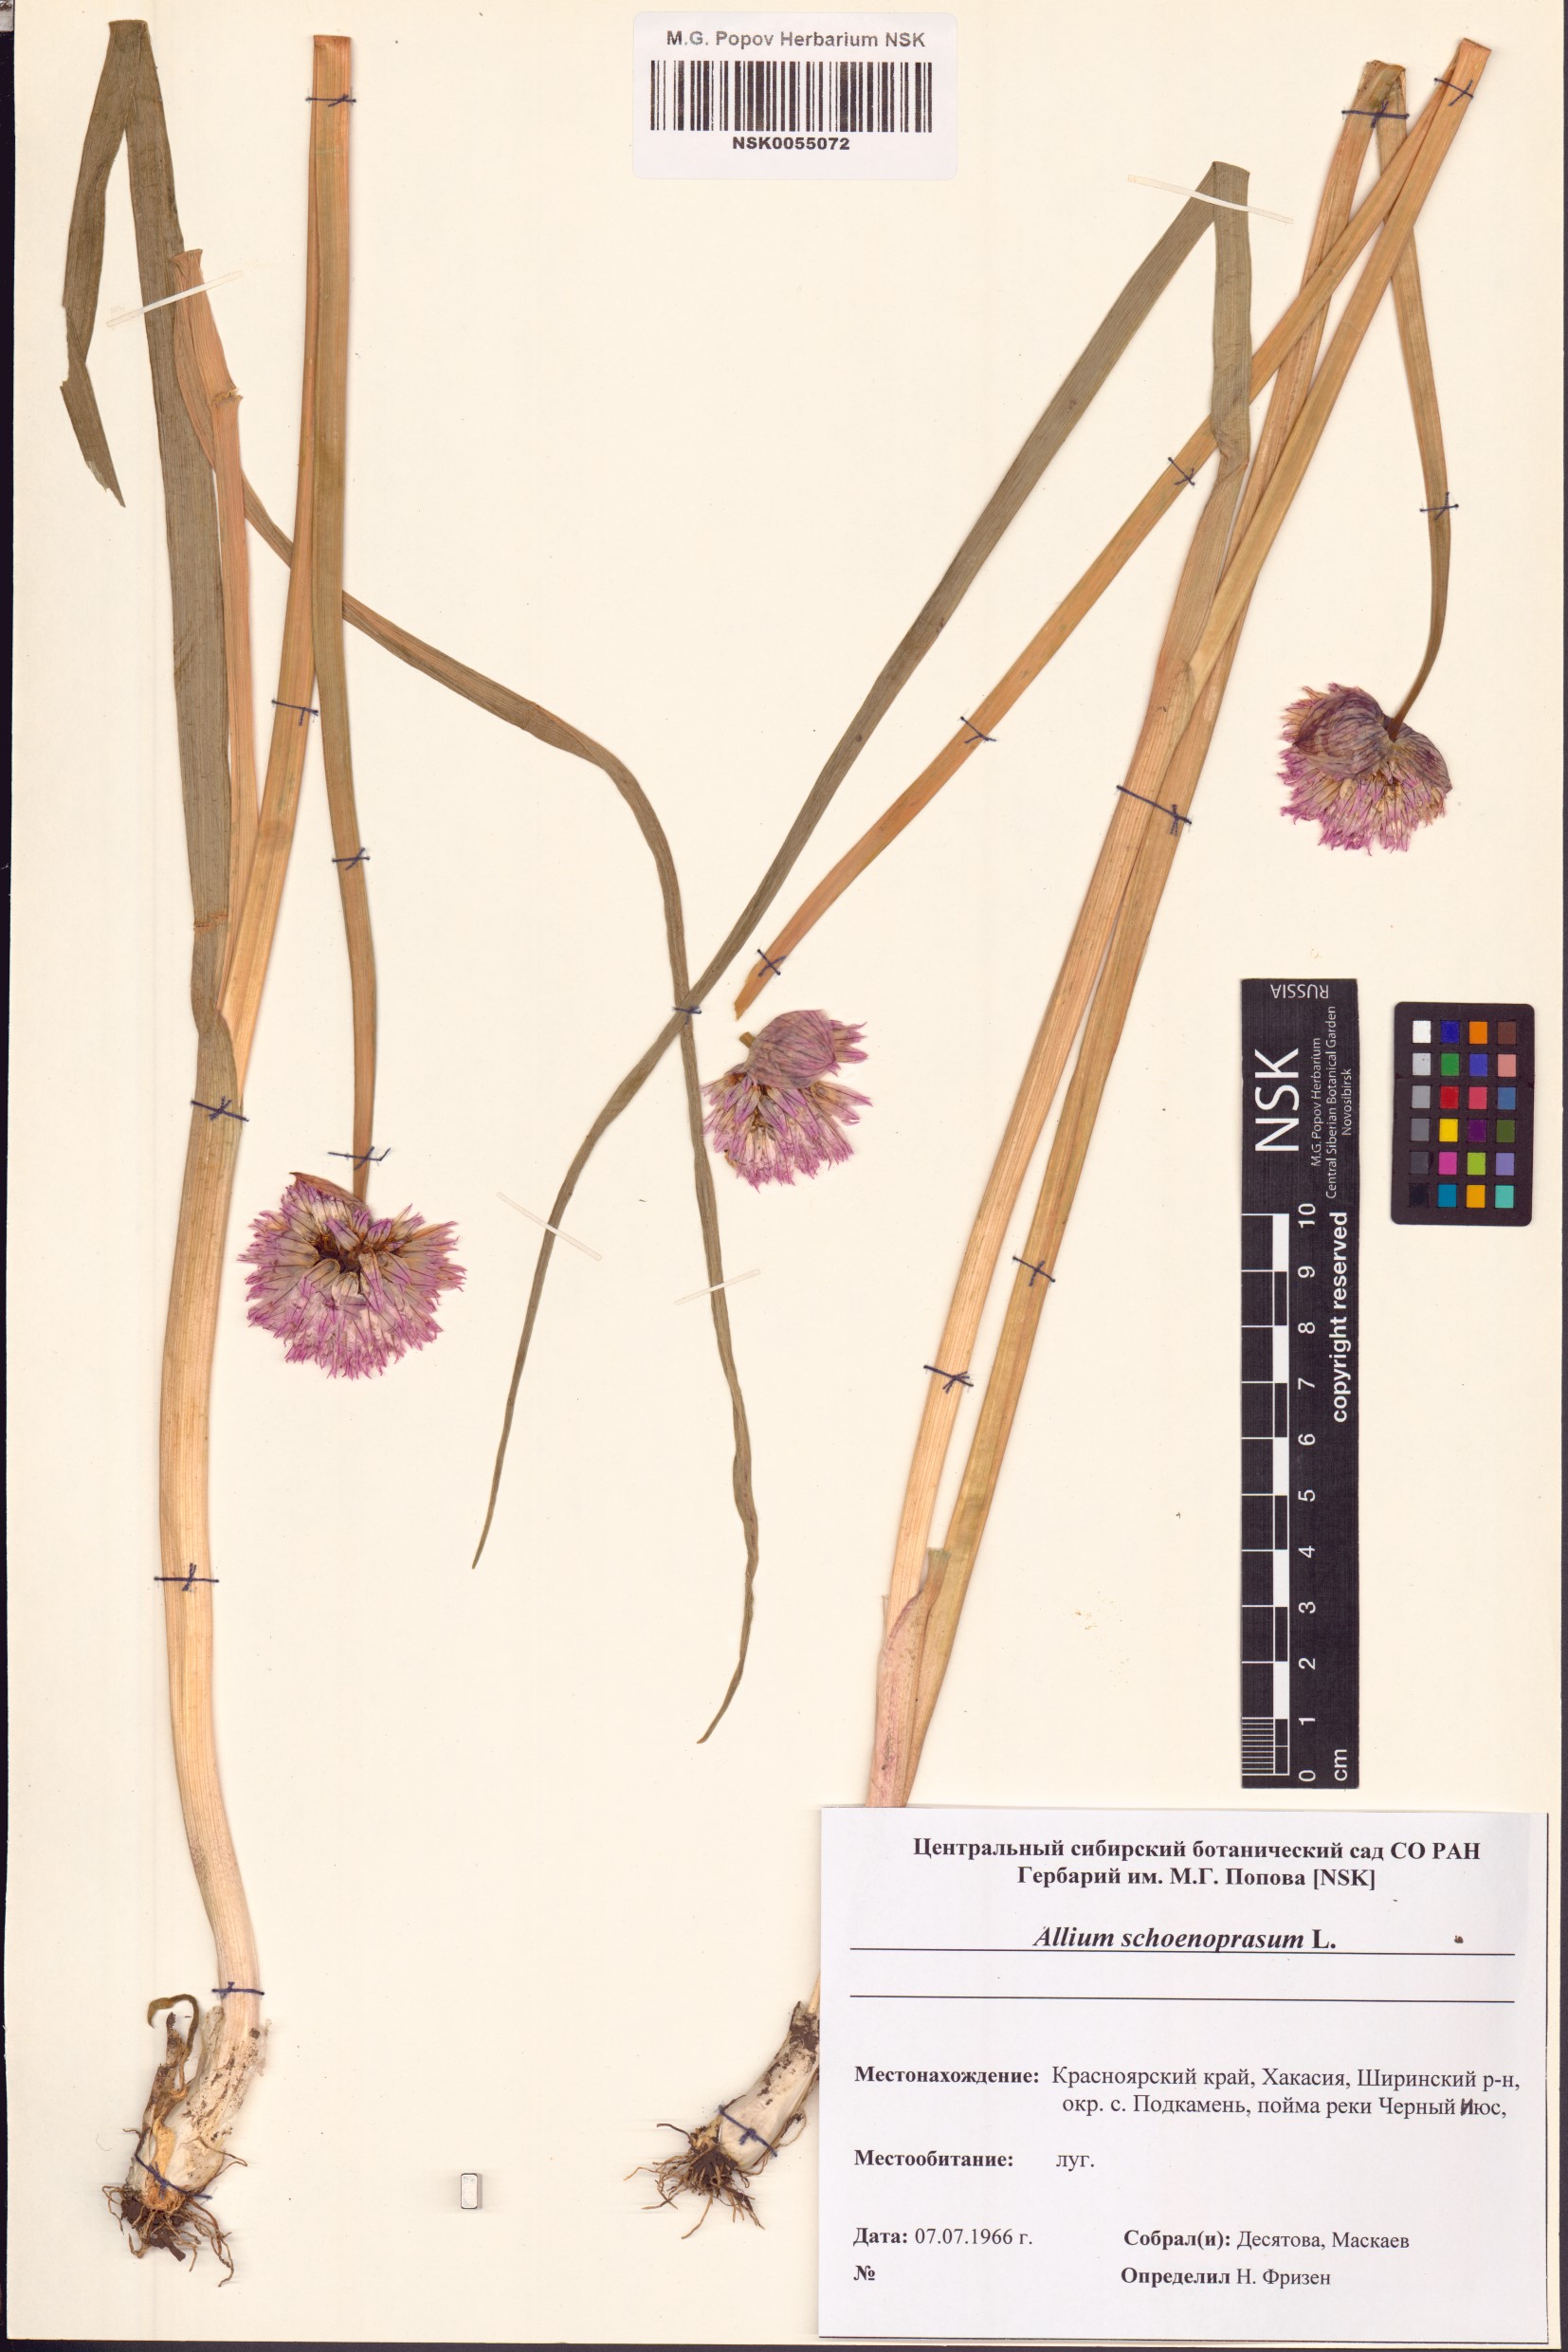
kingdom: Plantae
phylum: Tracheophyta
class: Liliopsida
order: Asparagales
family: Amaryllidaceae
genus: Allium
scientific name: Allium schoenoprasum
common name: Chives
